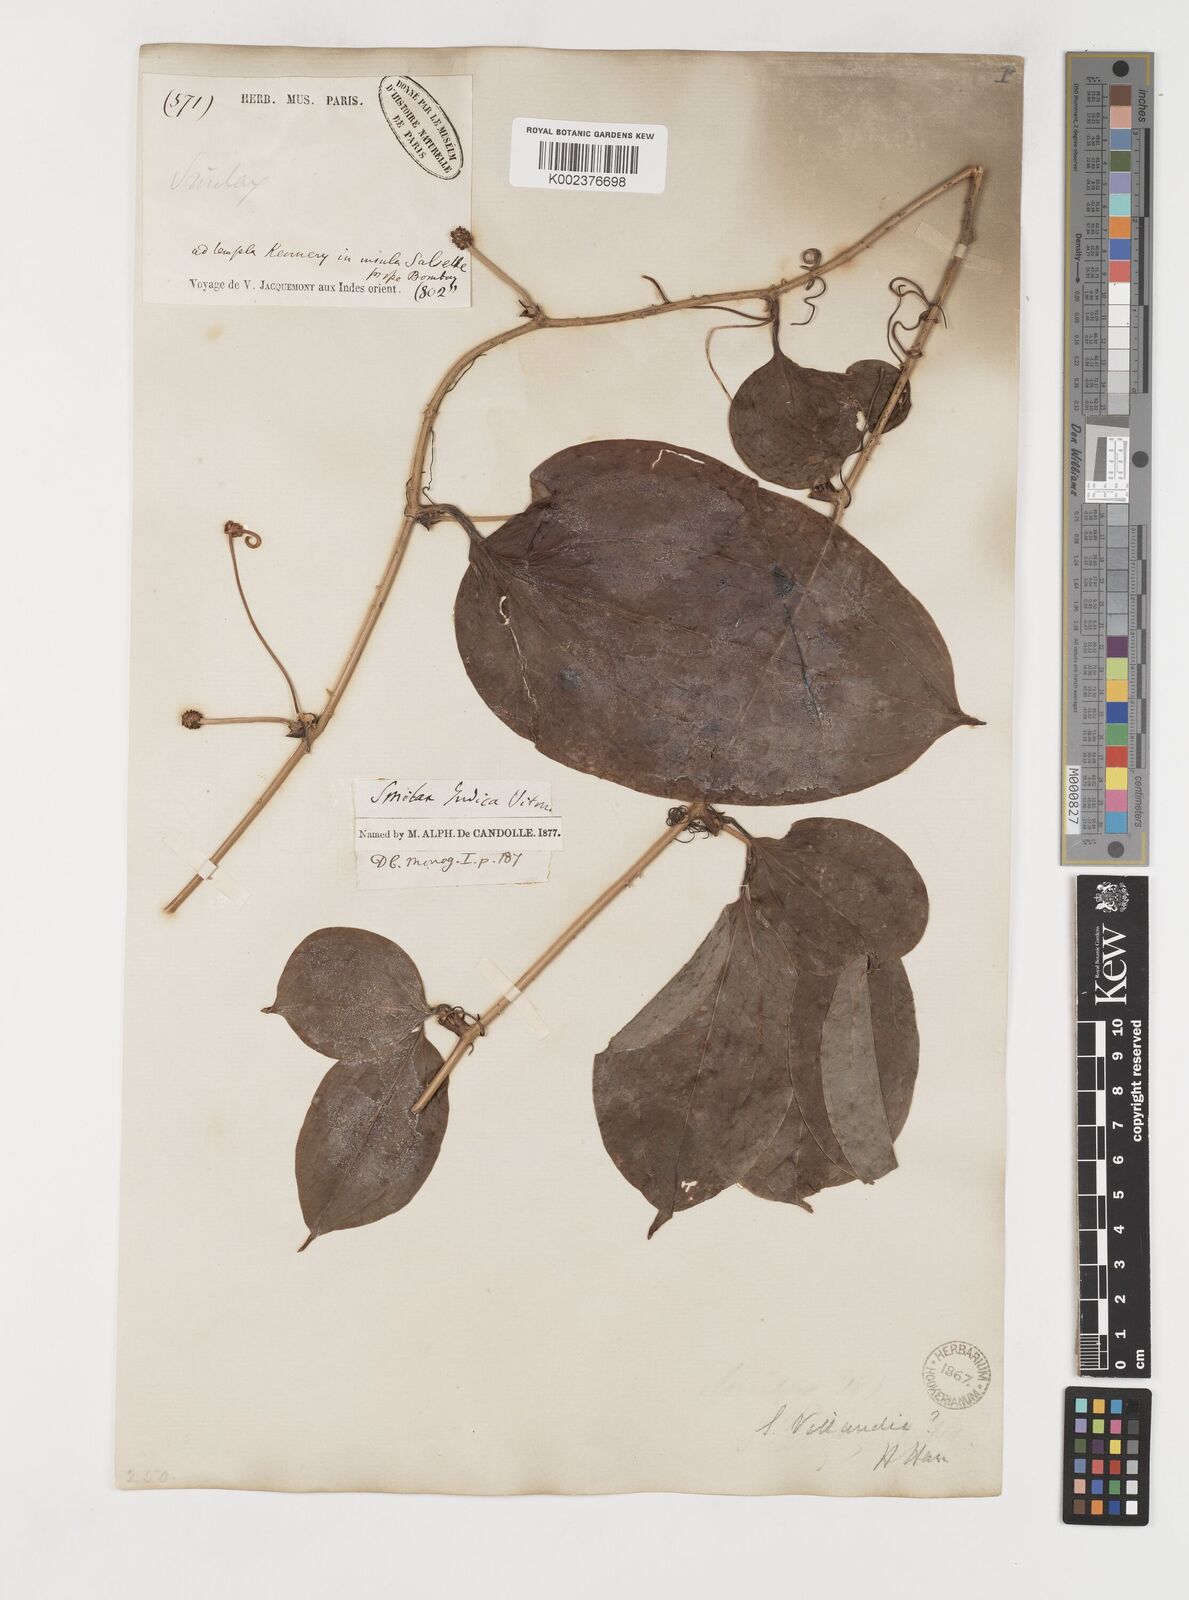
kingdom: Plantae
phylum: Tracheophyta
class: Liliopsida
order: Liliales
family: Smilacaceae
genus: Smilax
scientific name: Smilax zeylanica
